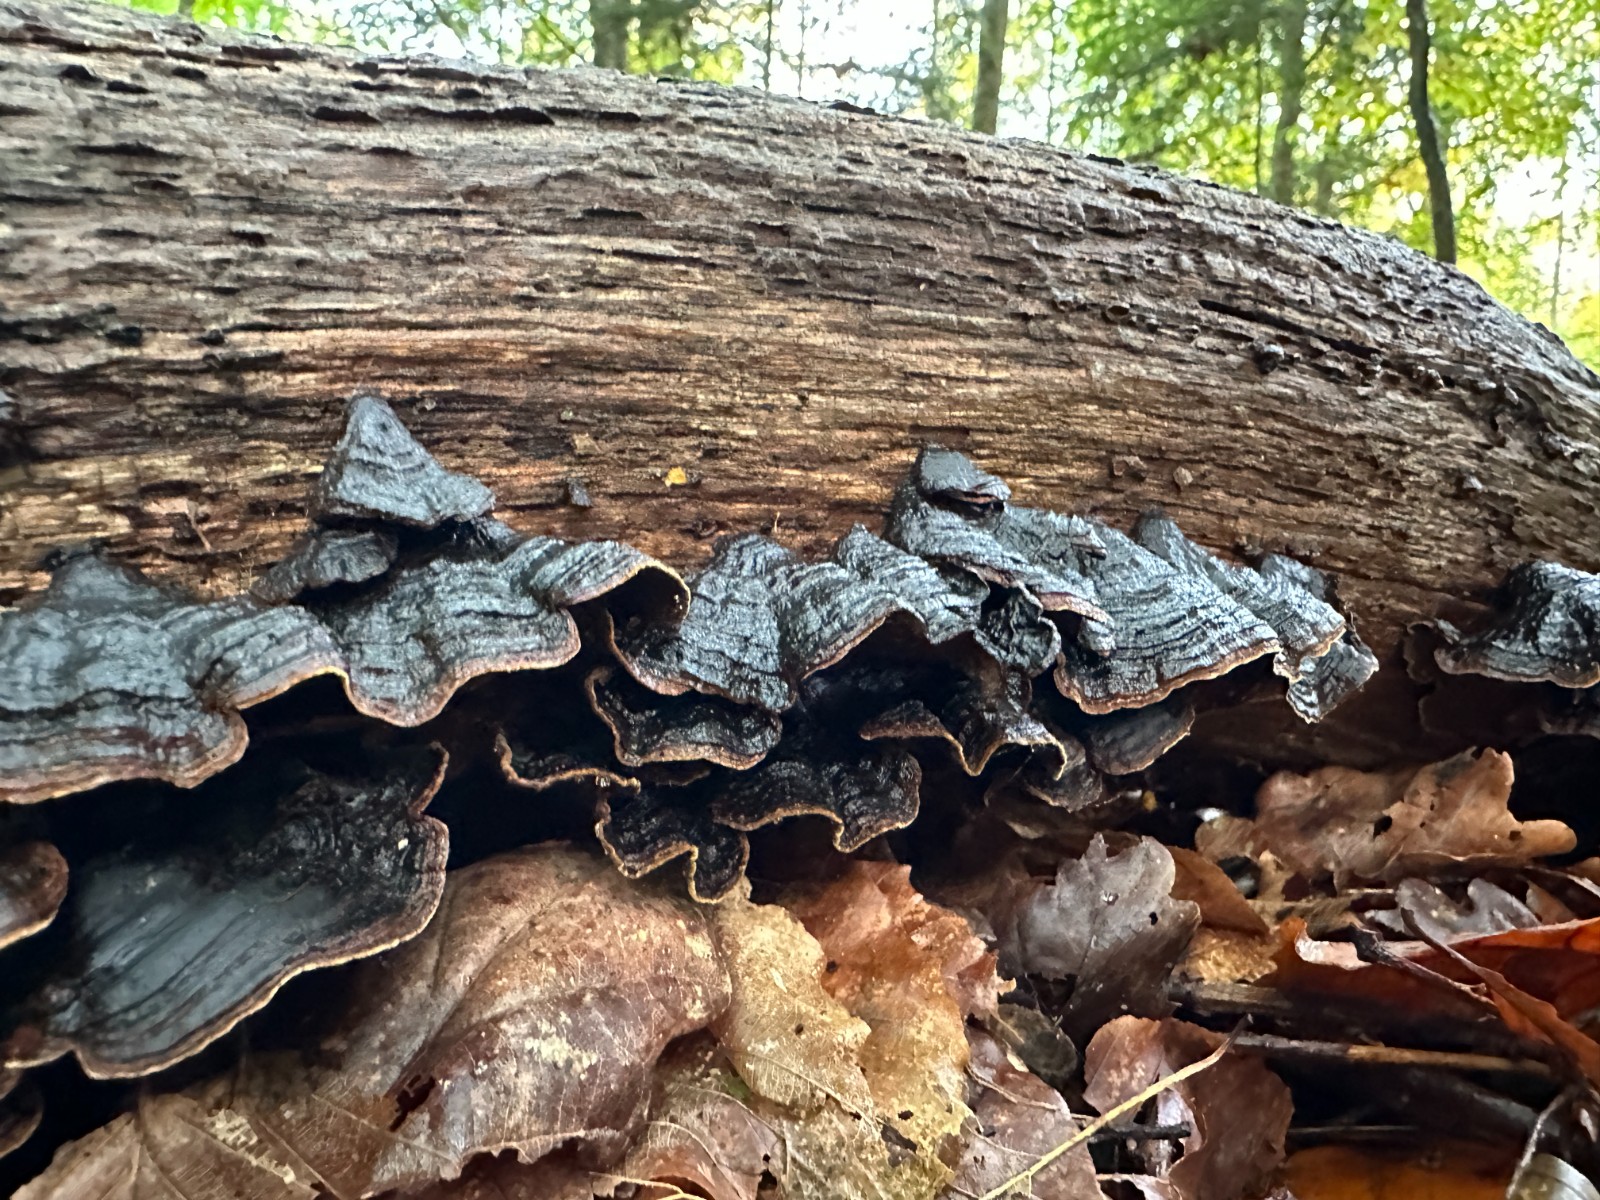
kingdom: Fungi
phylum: Basidiomycota
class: Agaricomycetes
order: Hymenochaetales
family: Hymenochaetaceae
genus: Hymenochaete
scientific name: Hymenochaete rubiginosa
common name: stiv ruslædersvamp
